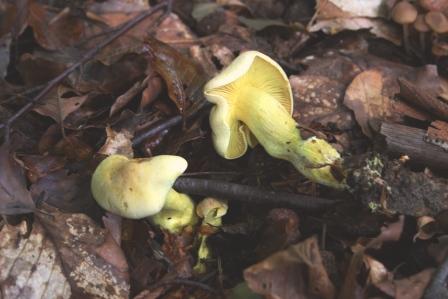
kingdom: Fungi
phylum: Basidiomycota
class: Agaricomycetes
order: Agaricales
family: Tricholomataceae
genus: Tricholoma
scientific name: Tricholoma sulphureum
